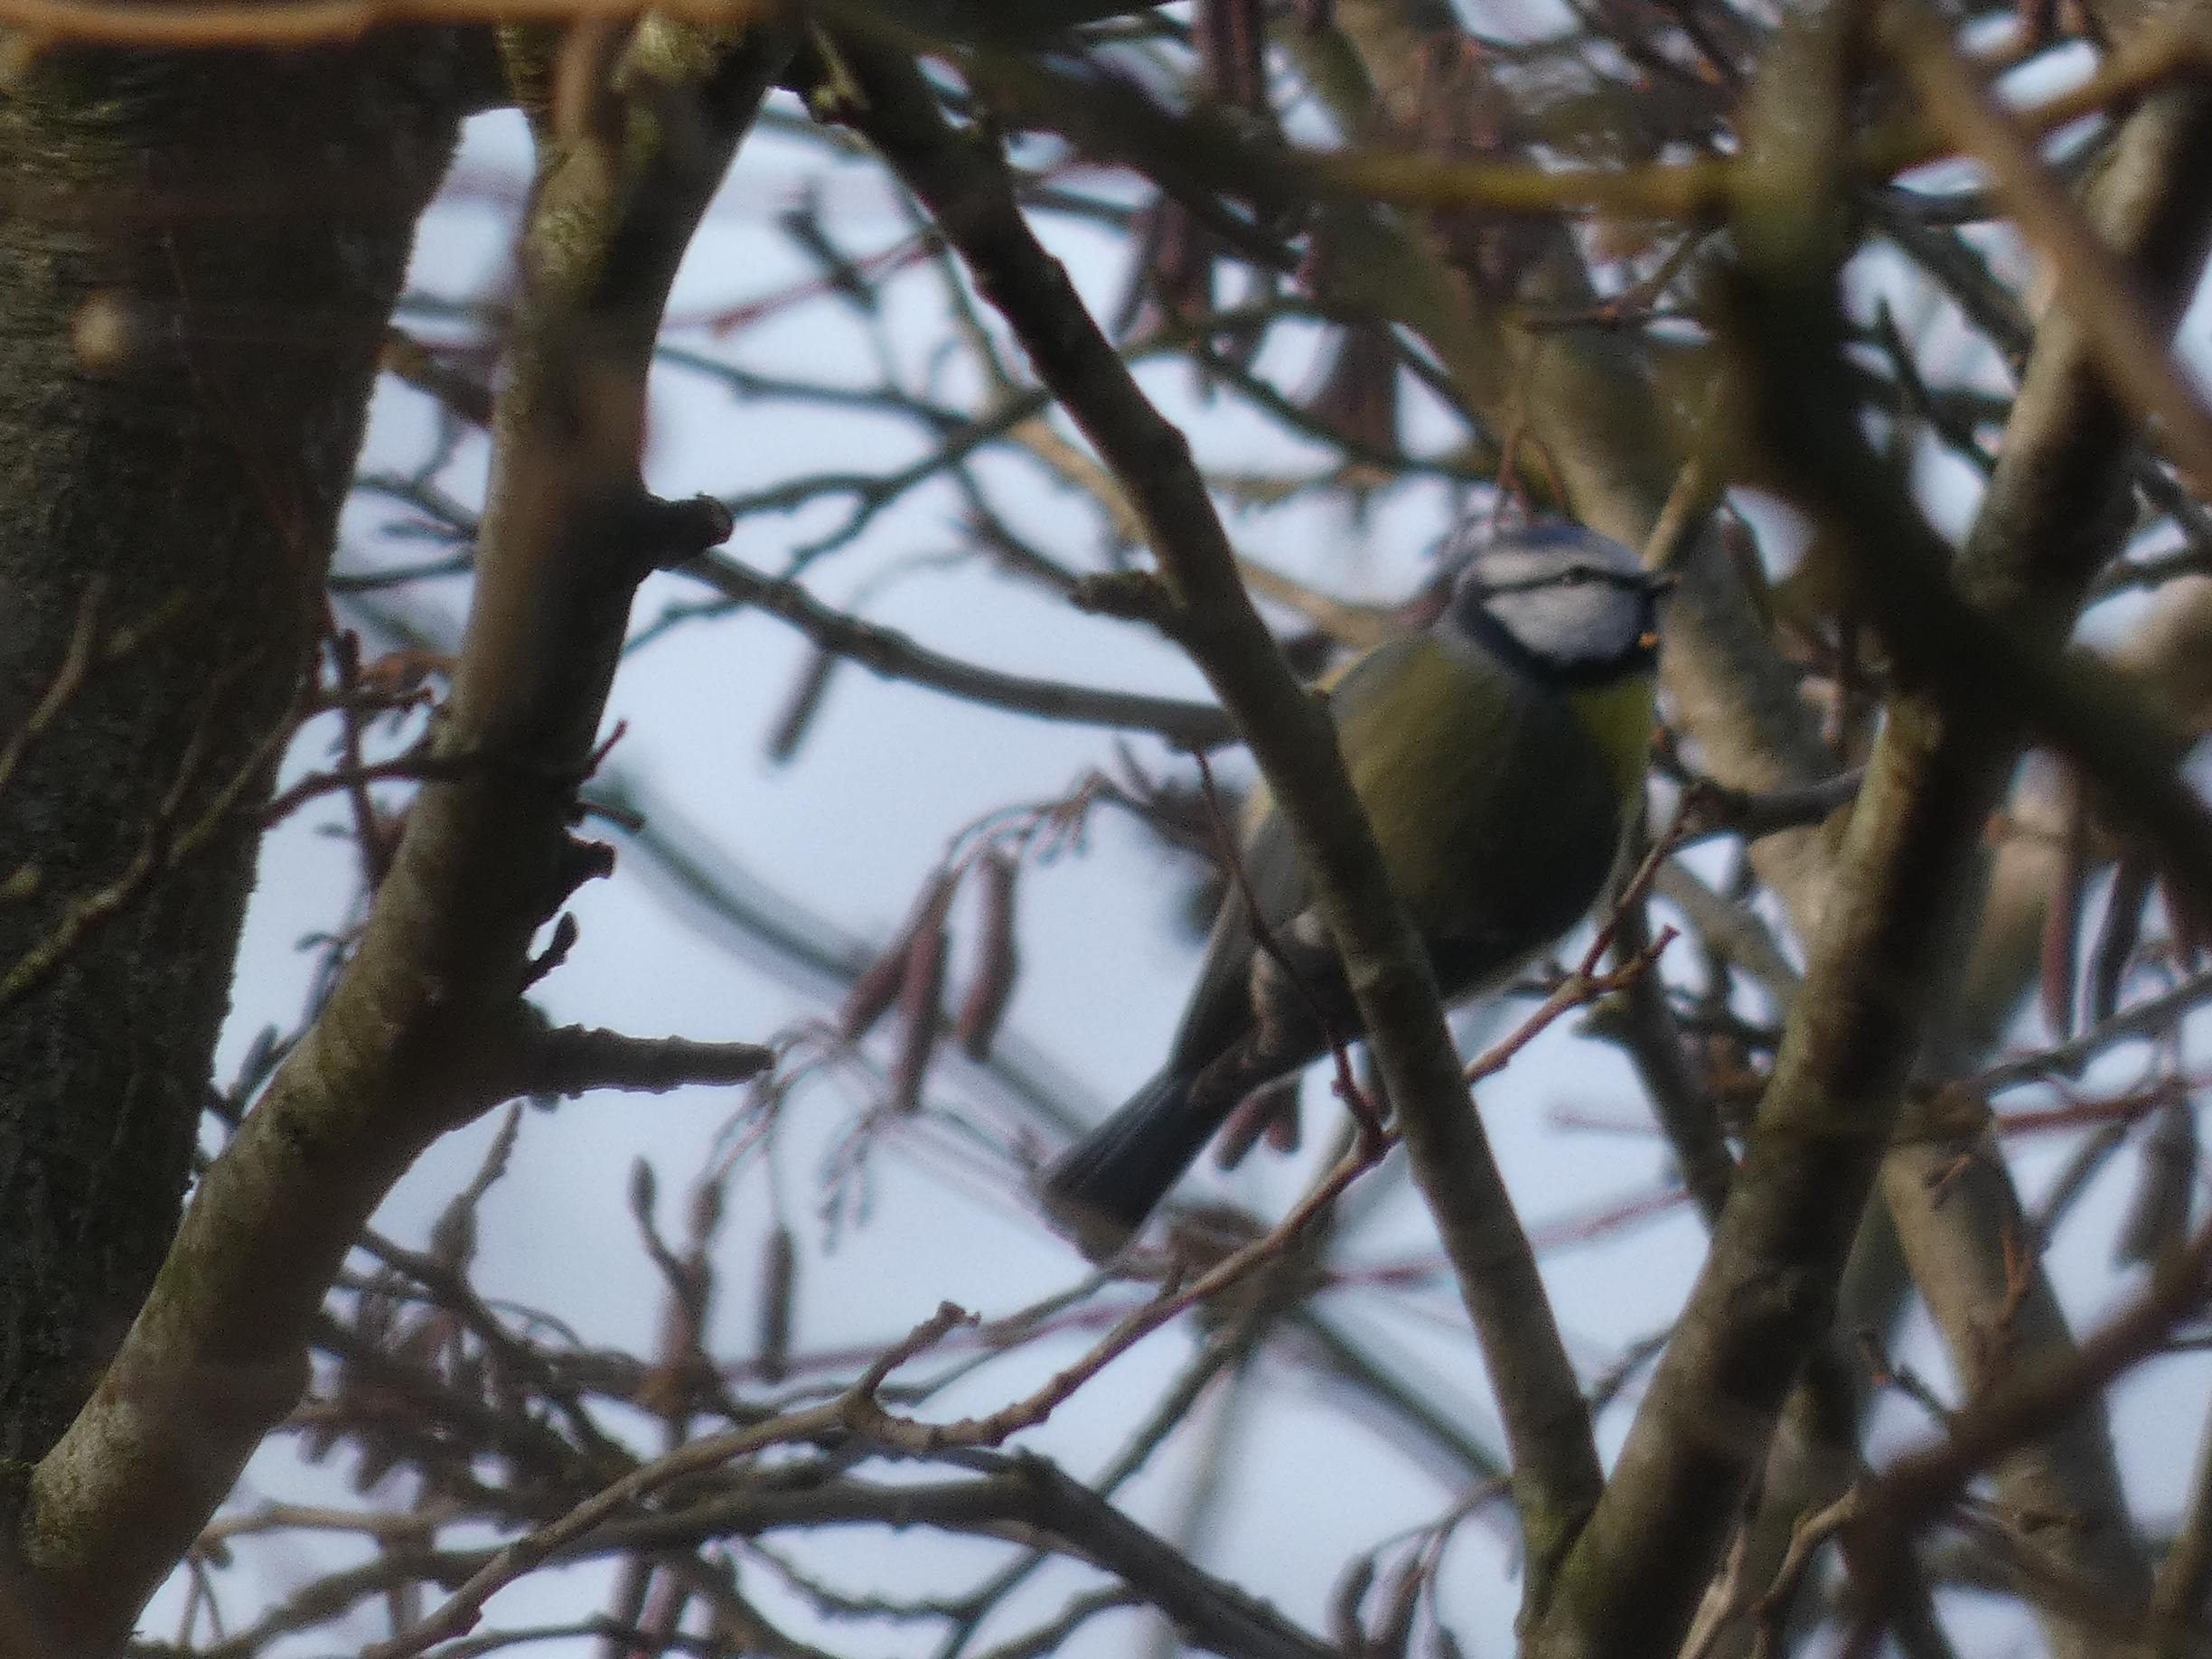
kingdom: Animalia
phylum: Chordata
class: Aves
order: Passeriformes
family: Paridae
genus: Cyanistes
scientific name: Cyanistes caeruleus
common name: Blåmejse
